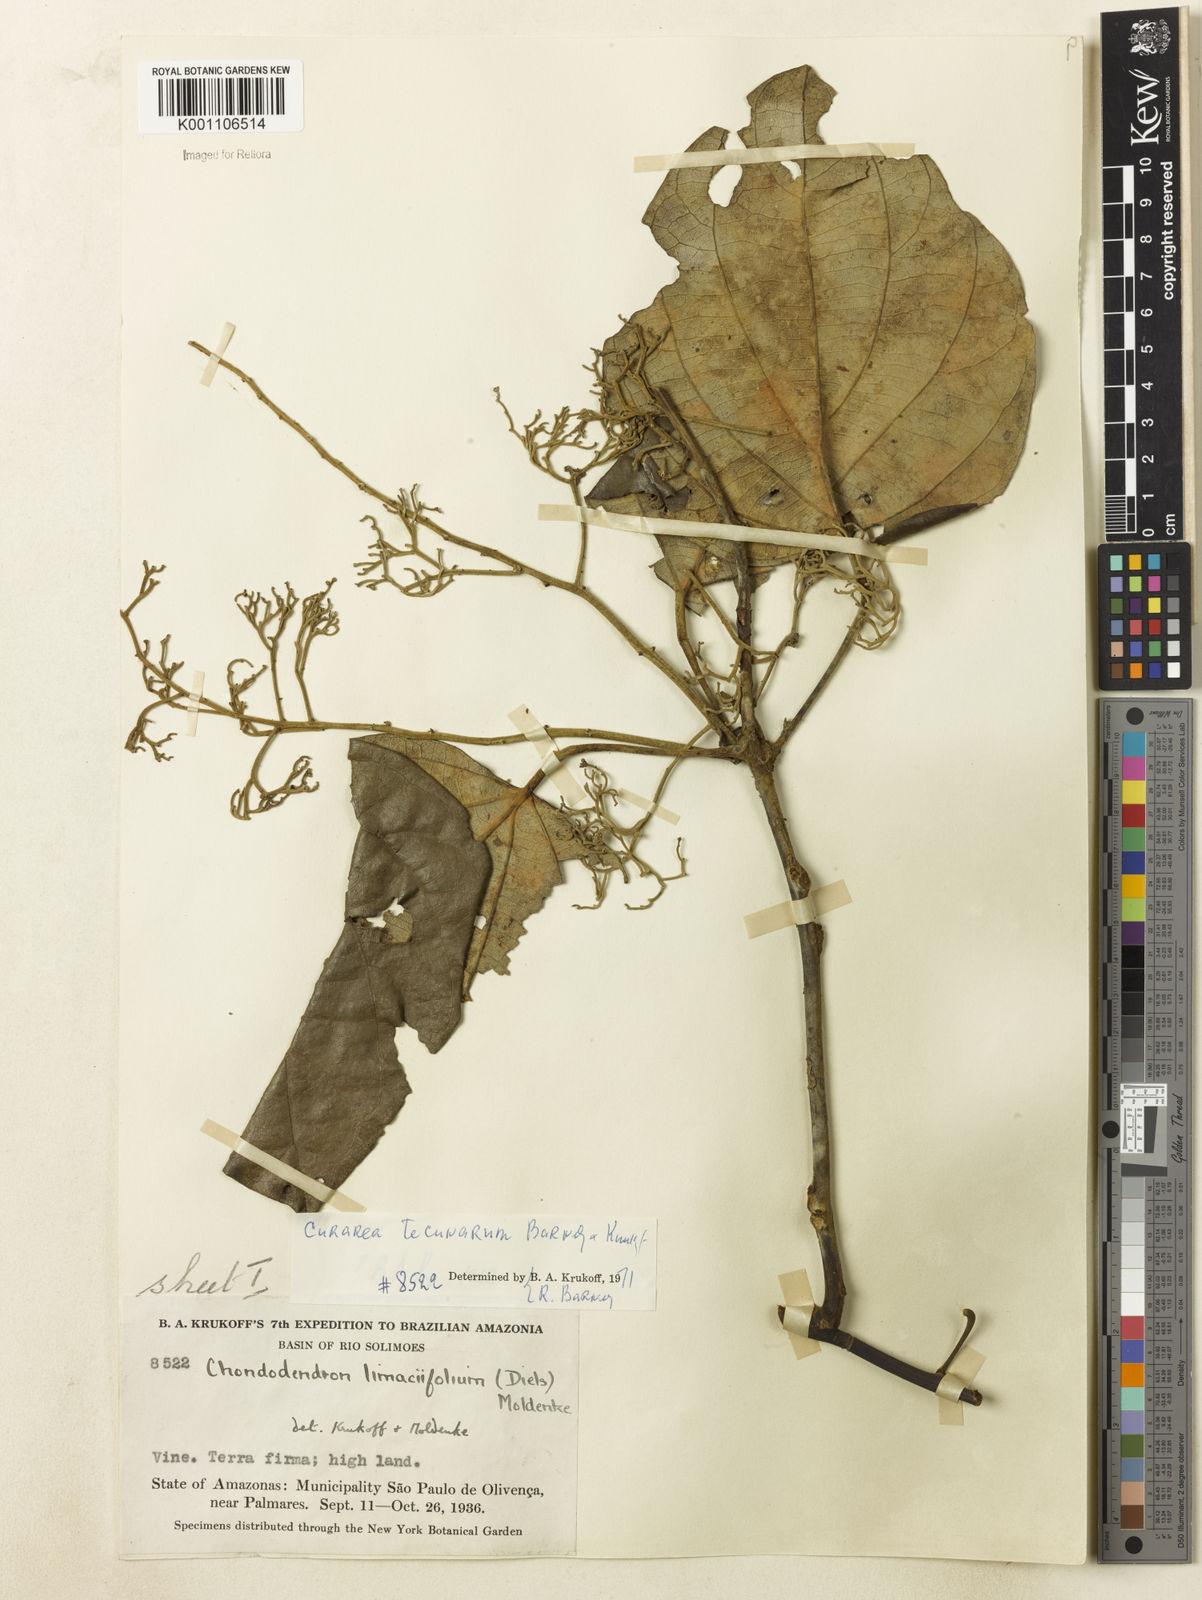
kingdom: Plantae
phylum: Tracheophyta
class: Magnoliopsida
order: Ranunculales
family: Menispermaceae
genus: Curarea
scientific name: Curarea tecunarum
